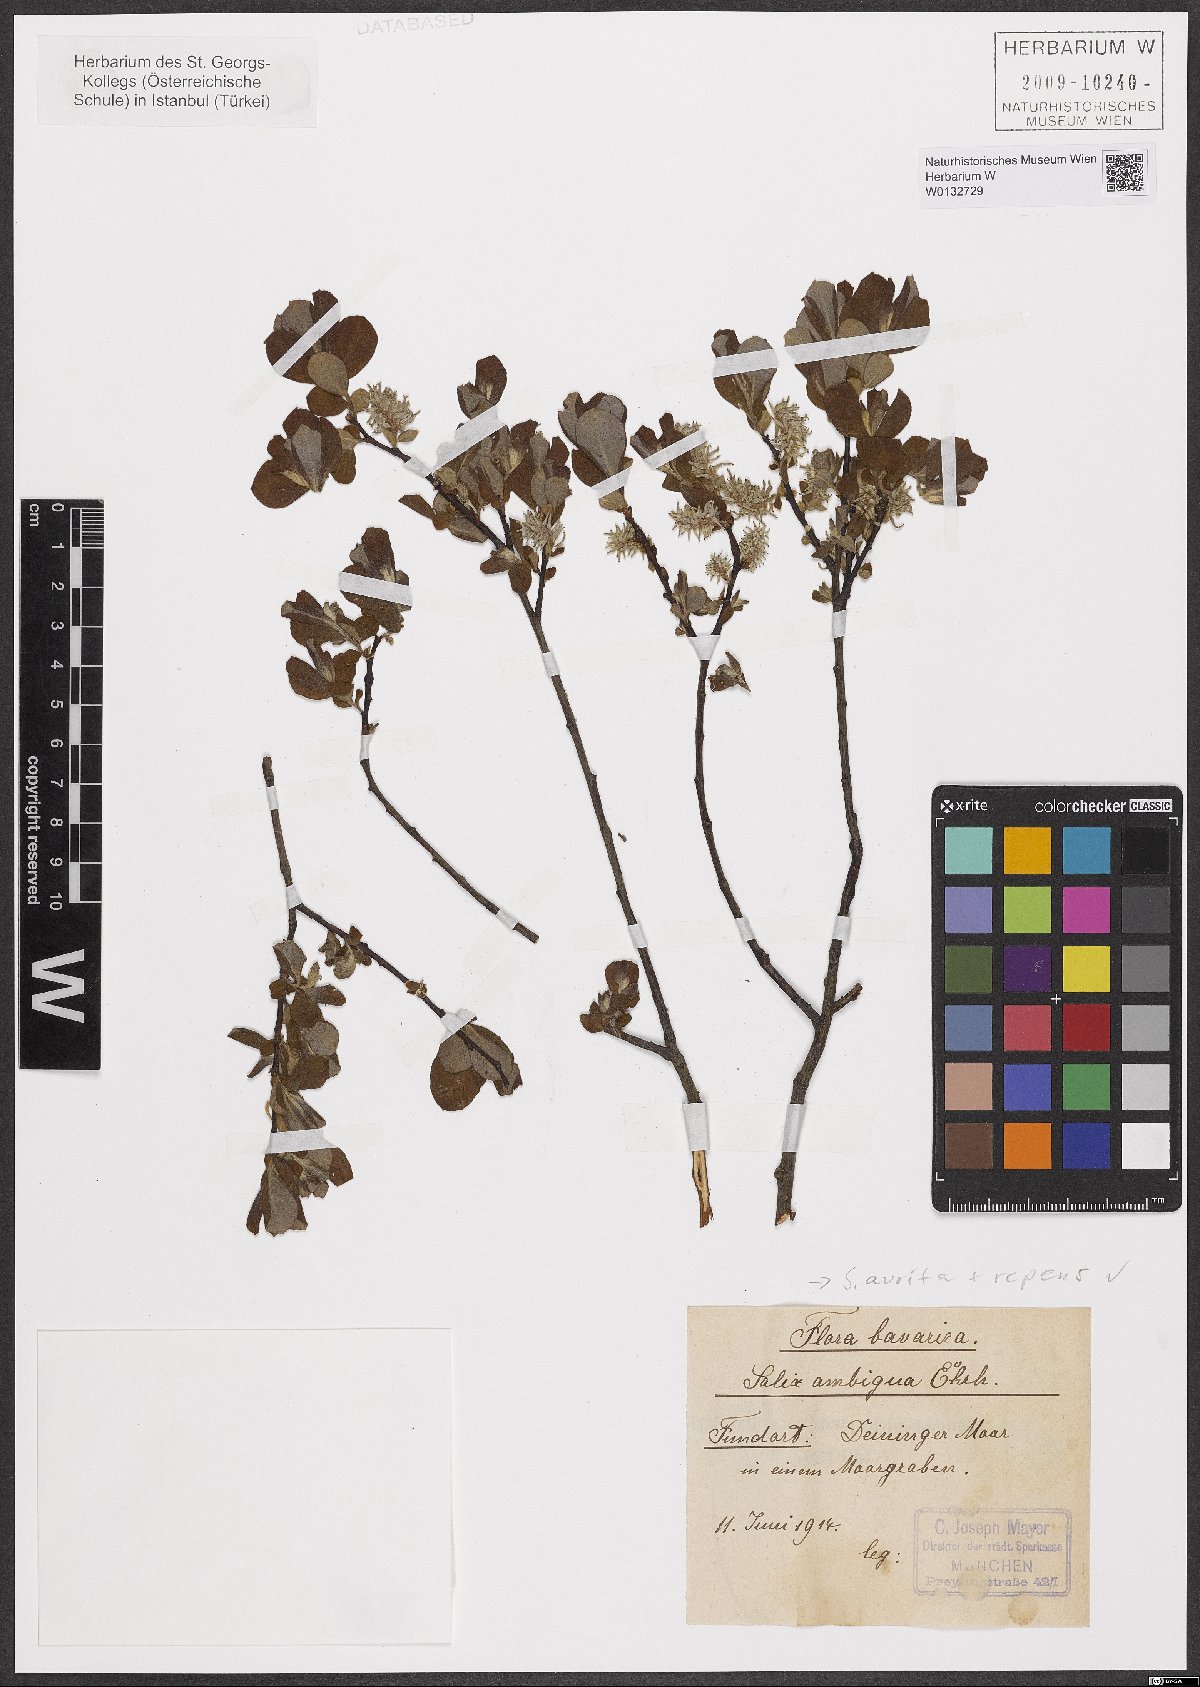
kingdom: Plantae
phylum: Tracheophyta
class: Magnoliopsida
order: Malpighiales
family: Salicaceae
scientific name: Salicaceae
